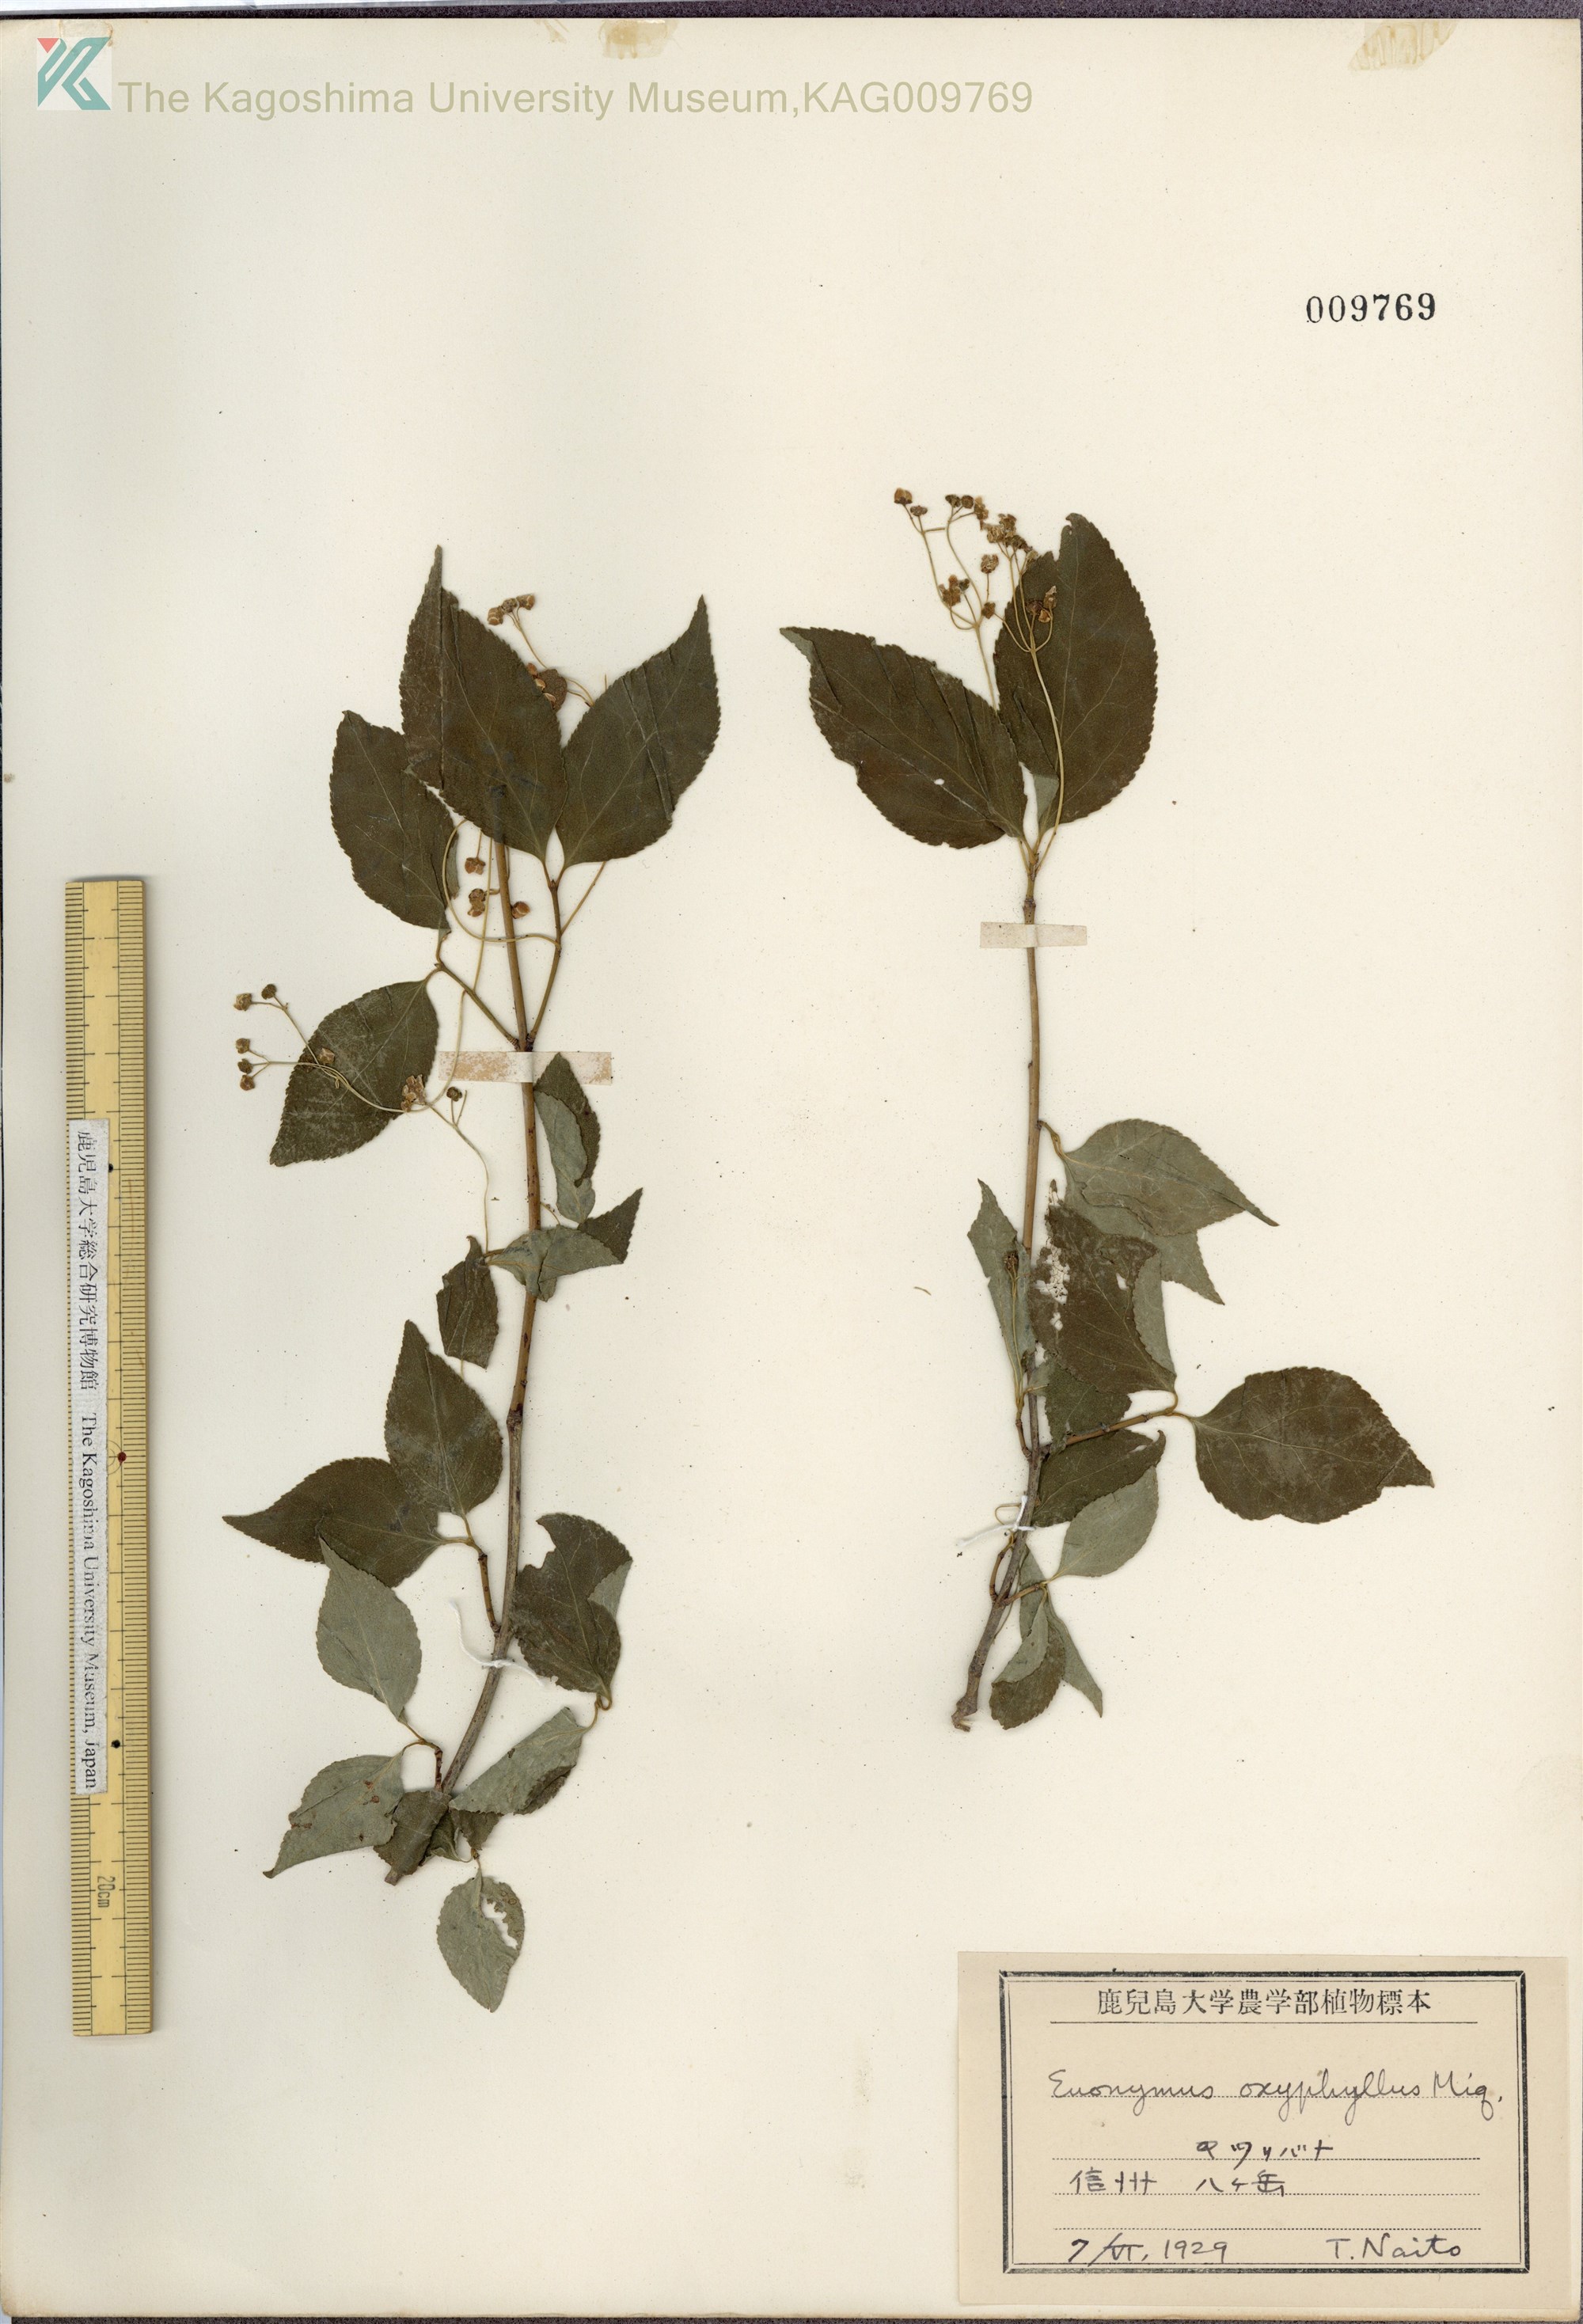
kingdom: Plantae
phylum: Tracheophyta
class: Magnoliopsida
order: Celastrales
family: Celastraceae
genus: Euonymus
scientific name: Euonymus oxyphyllus
